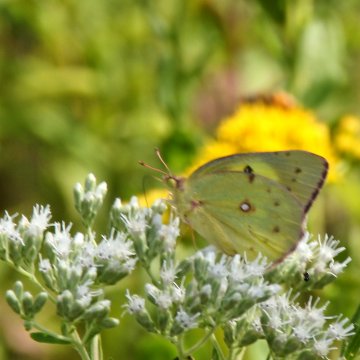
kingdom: Animalia
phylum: Arthropoda
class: Insecta
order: Lepidoptera
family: Pieridae
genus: Colias
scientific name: Colias philodice
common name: Clouded Sulphur
